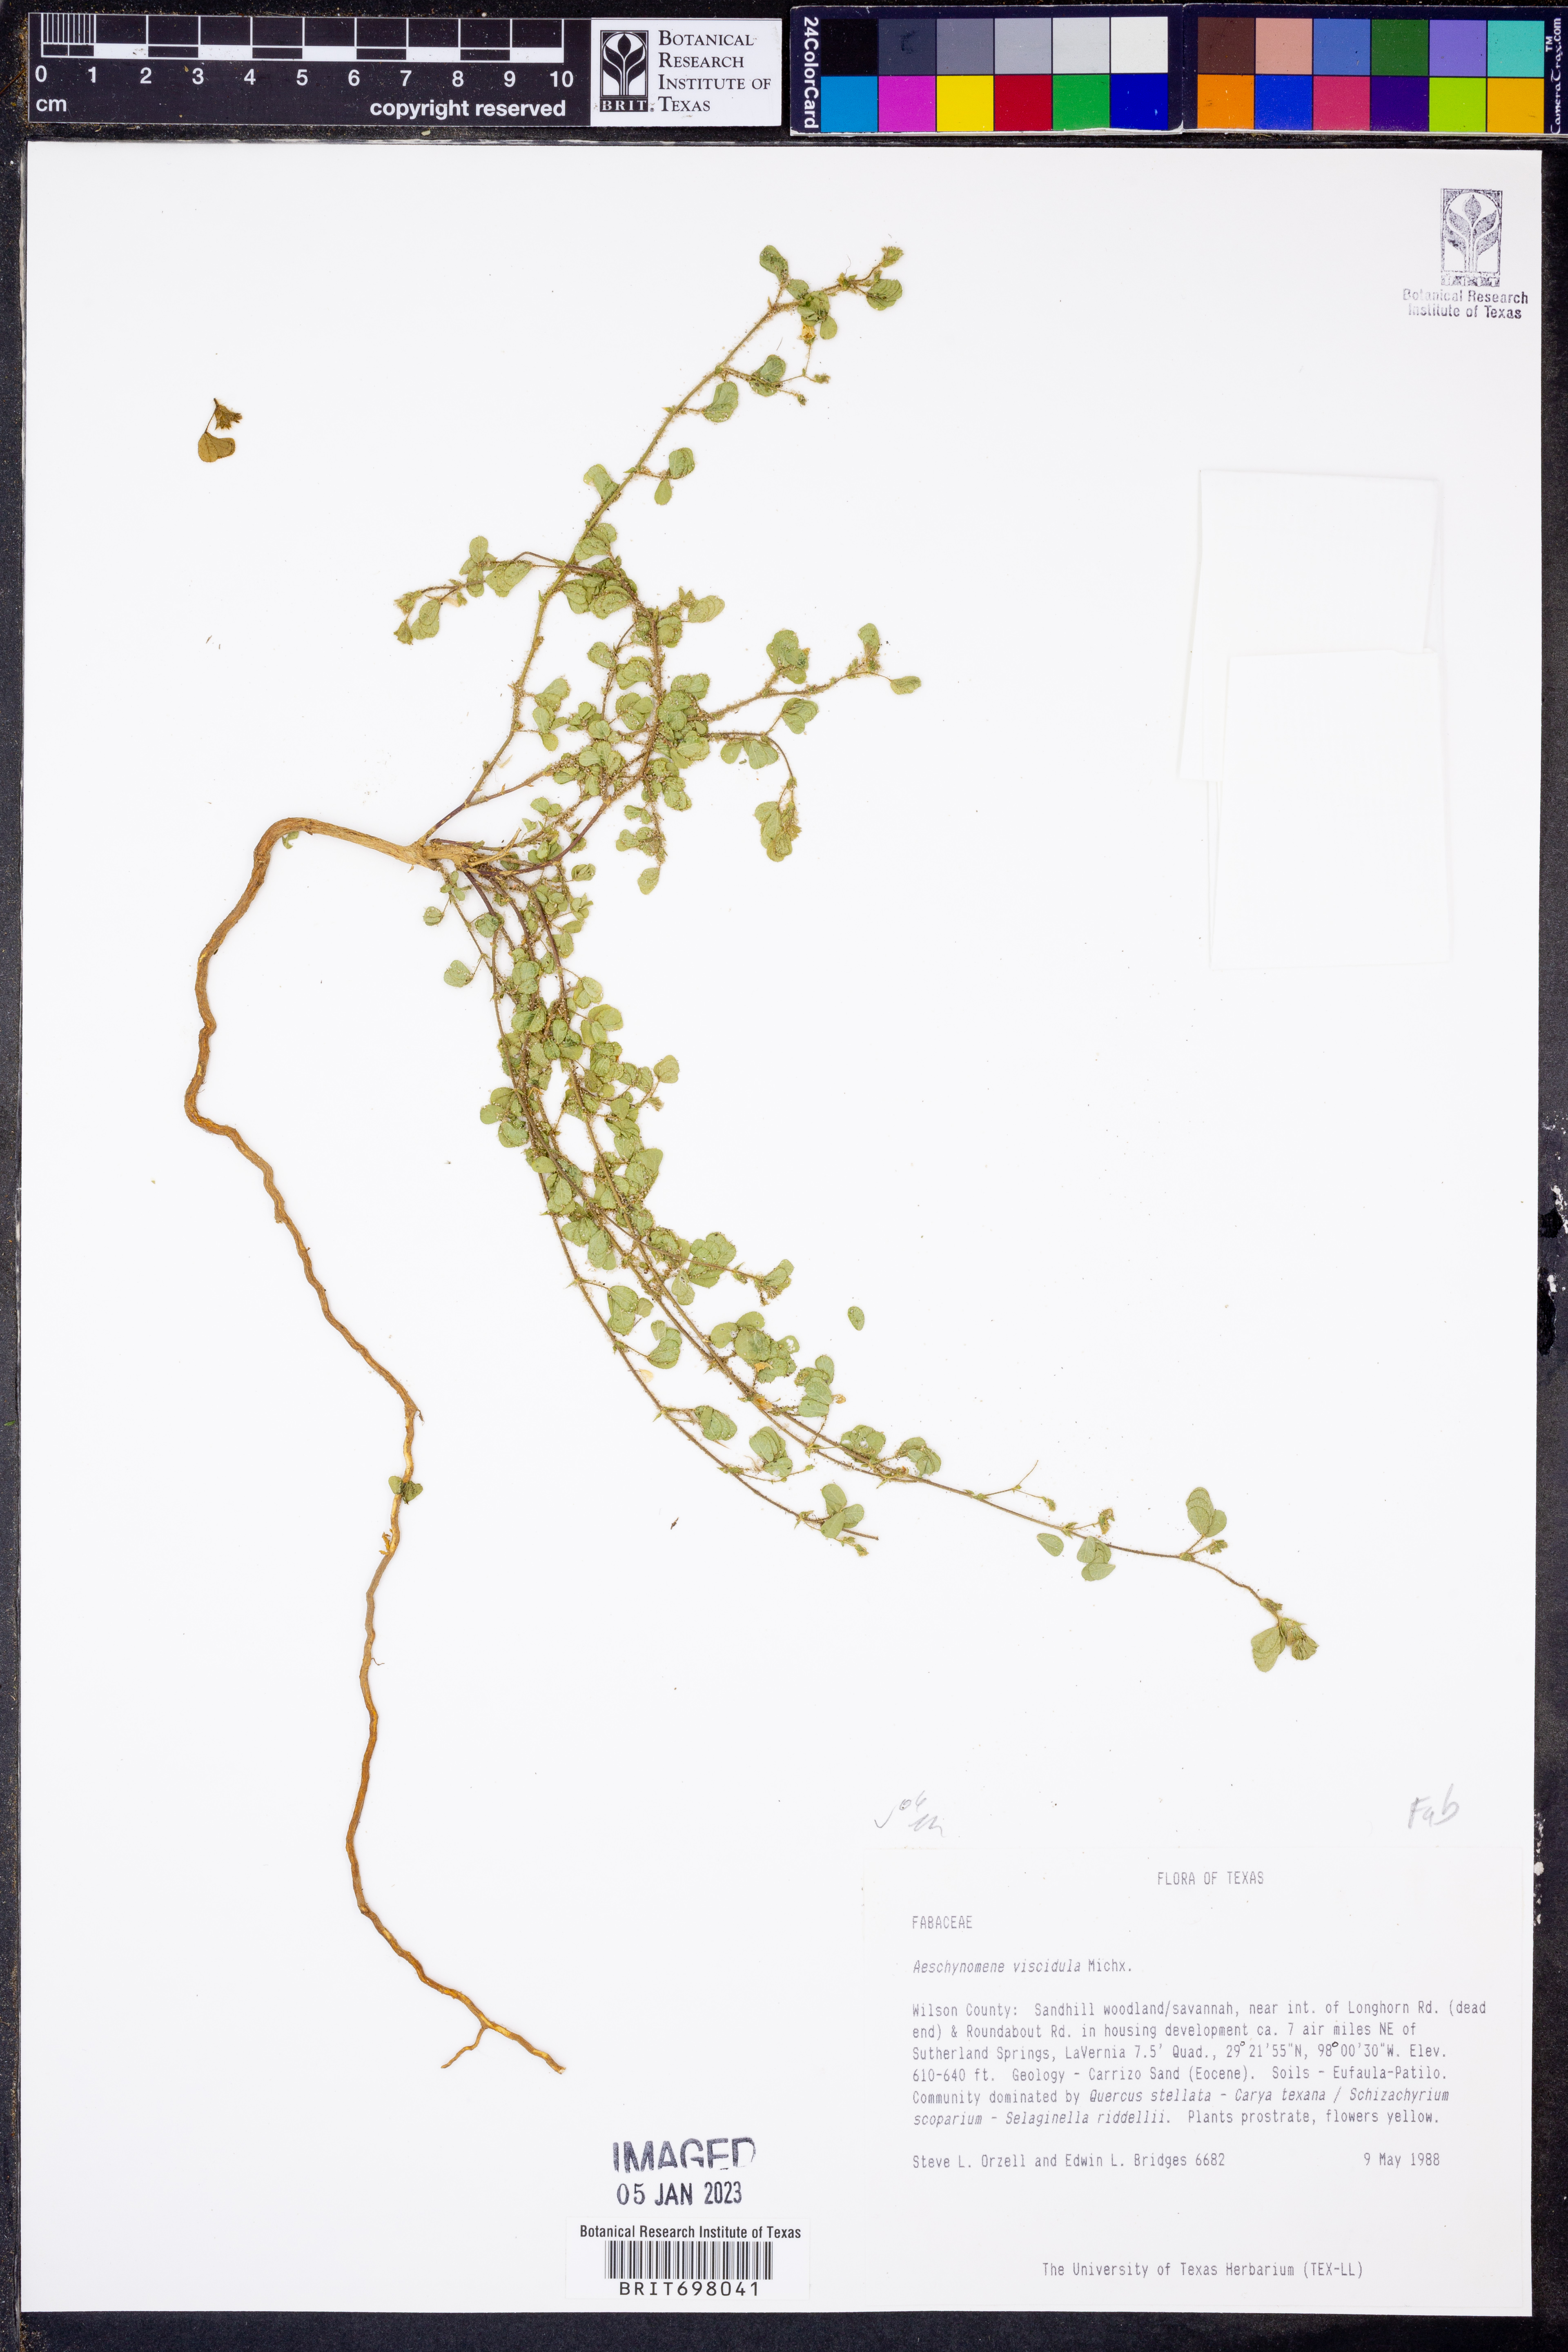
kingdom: Plantae
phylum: Tracheophyta
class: Magnoliopsida
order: Fabales
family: Fabaceae
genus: Aeschynomene
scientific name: Aeschynomene indica
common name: Indian jointvetch
